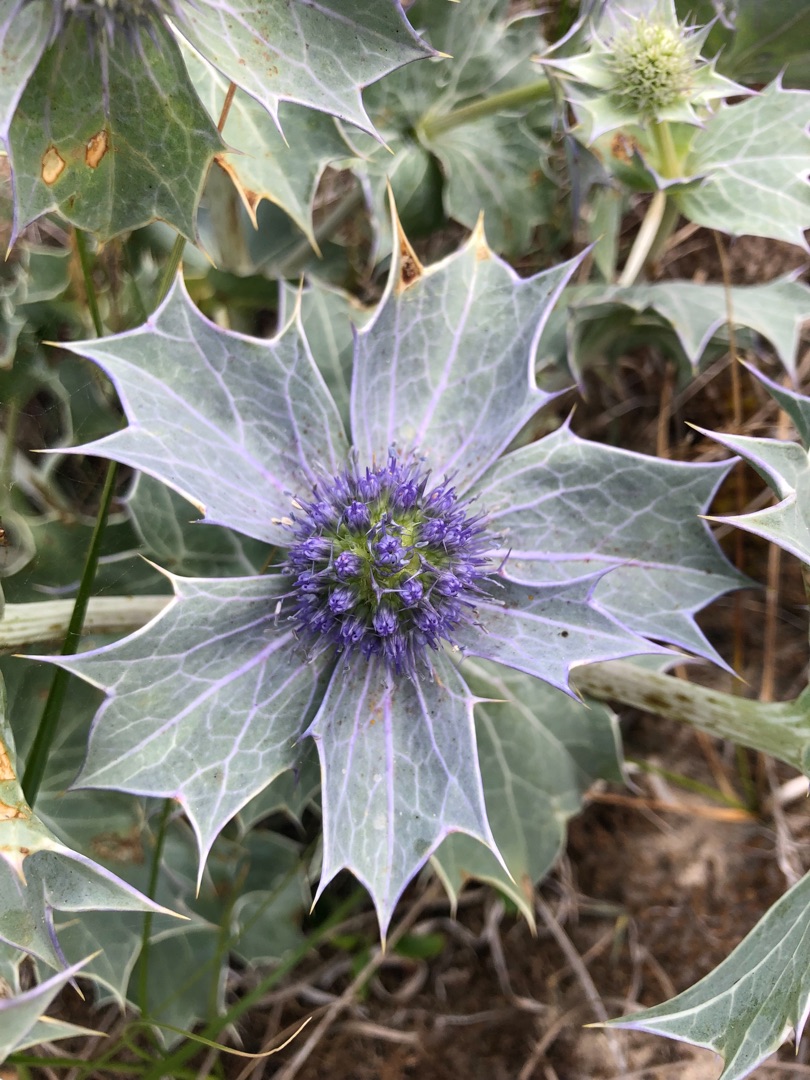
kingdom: Plantae
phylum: Tracheophyta
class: Magnoliopsida
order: Apiales
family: Apiaceae
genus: Eryngium
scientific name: Eryngium maritimum
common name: Strand-mandstro
